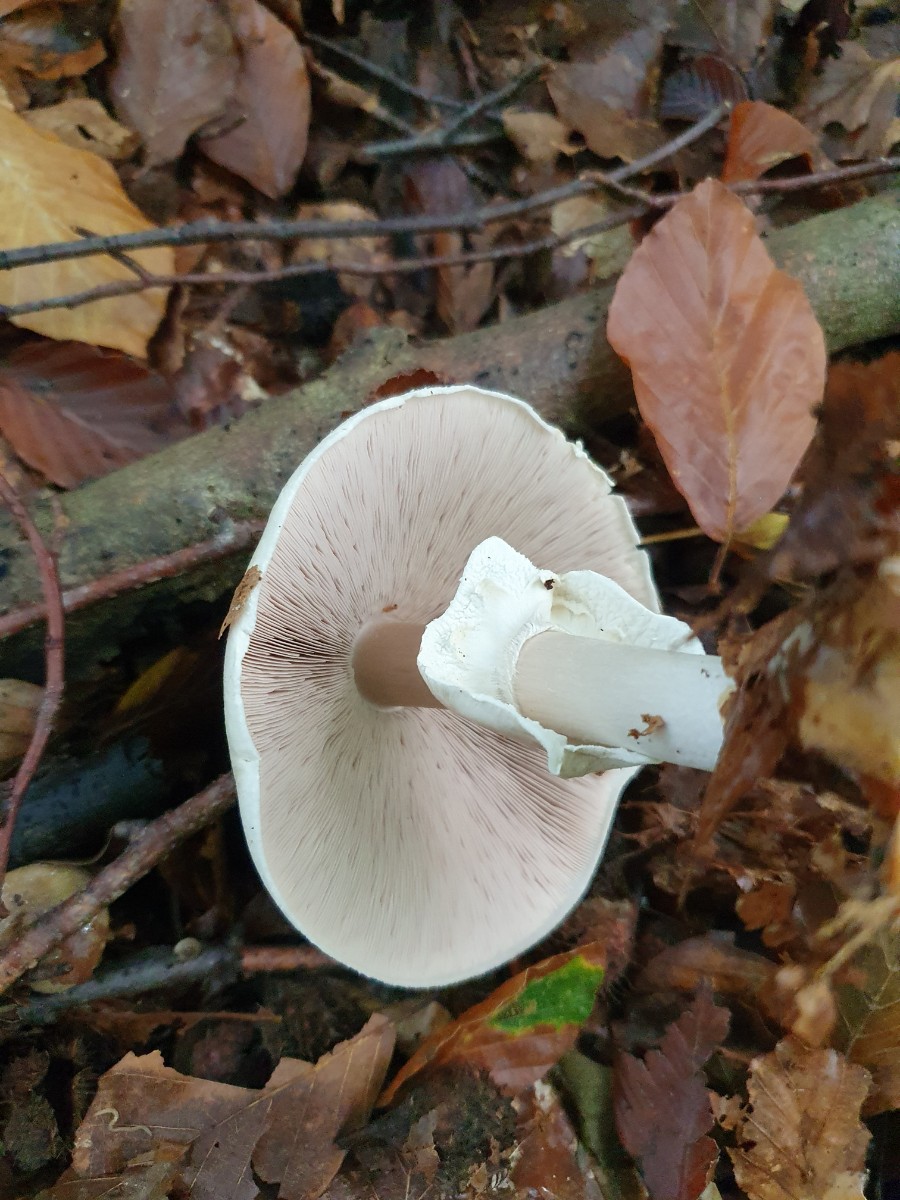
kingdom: Fungi
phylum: Basidiomycota
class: Agaricomycetes
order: Agaricales
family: Agaricaceae
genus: Agaricus
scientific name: Agaricus
